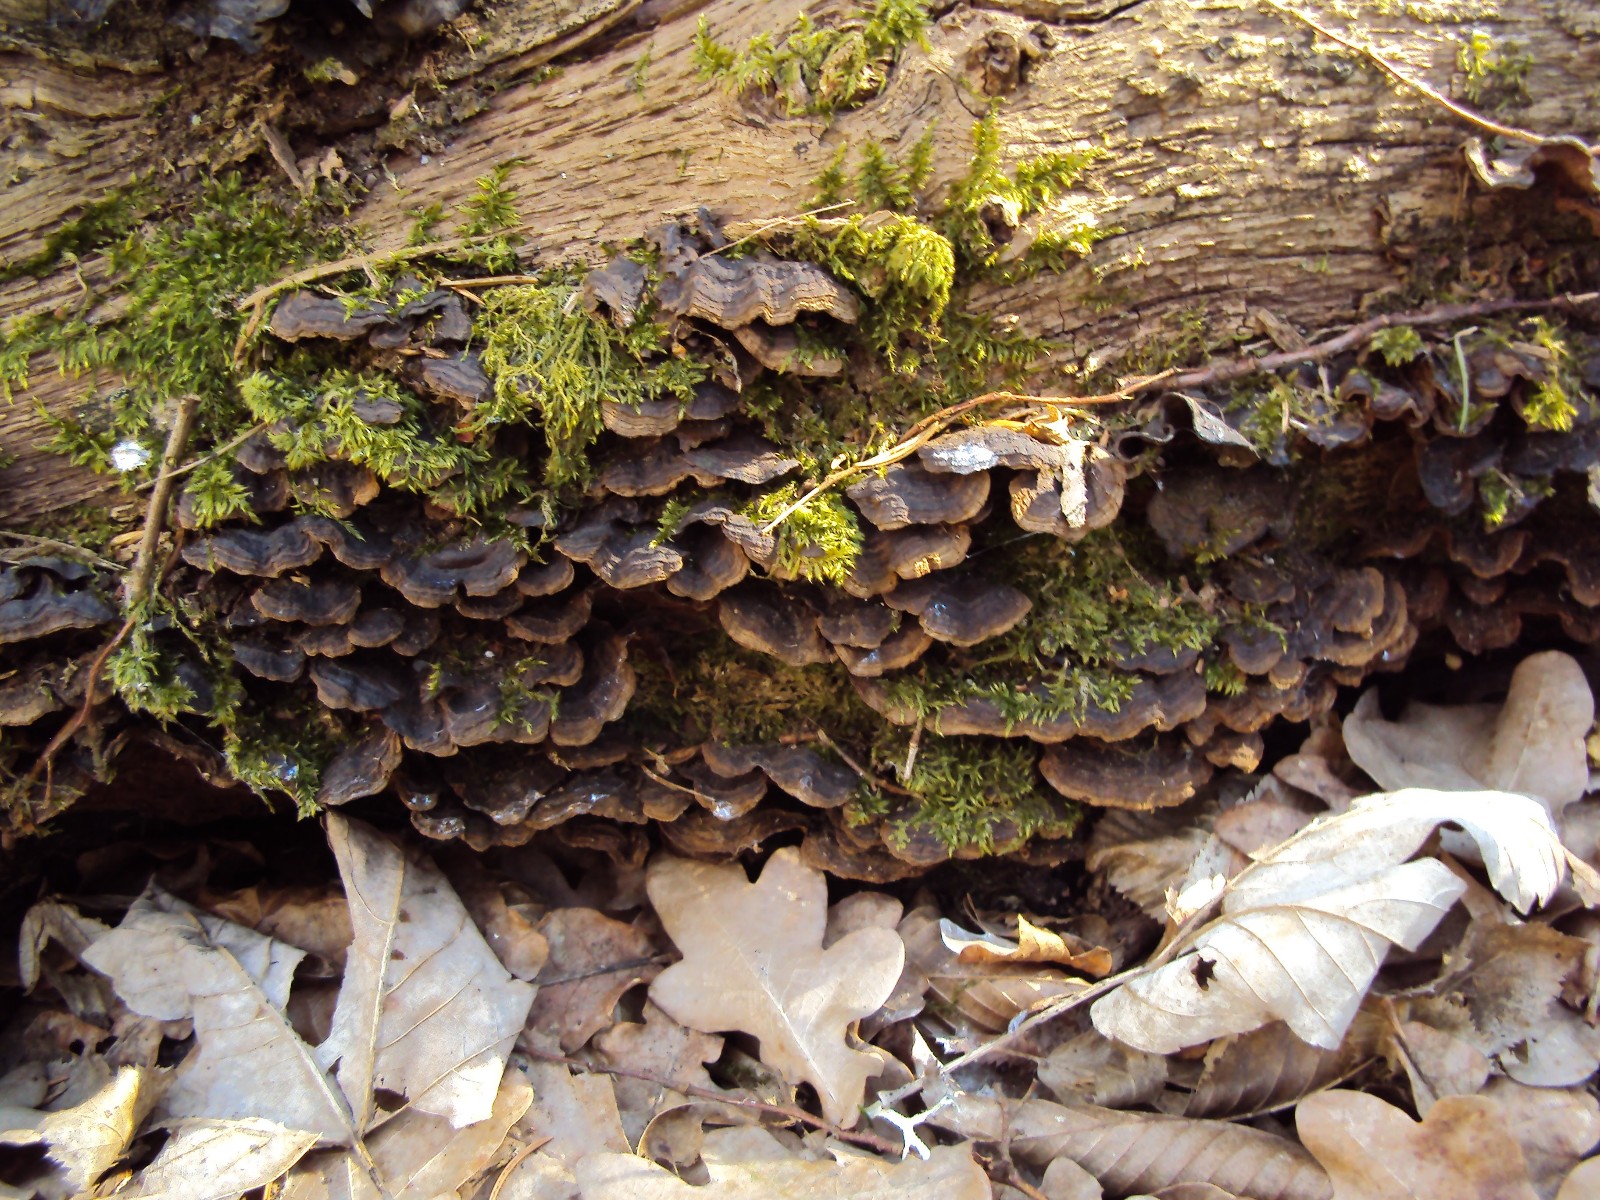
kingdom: Fungi
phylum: Basidiomycota
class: Agaricomycetes
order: Hymenochaetales
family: Hymenochaetaceae
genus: Hymenochaete
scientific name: Hymenochaete rubiginosa
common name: stiv ruslædersvamp
